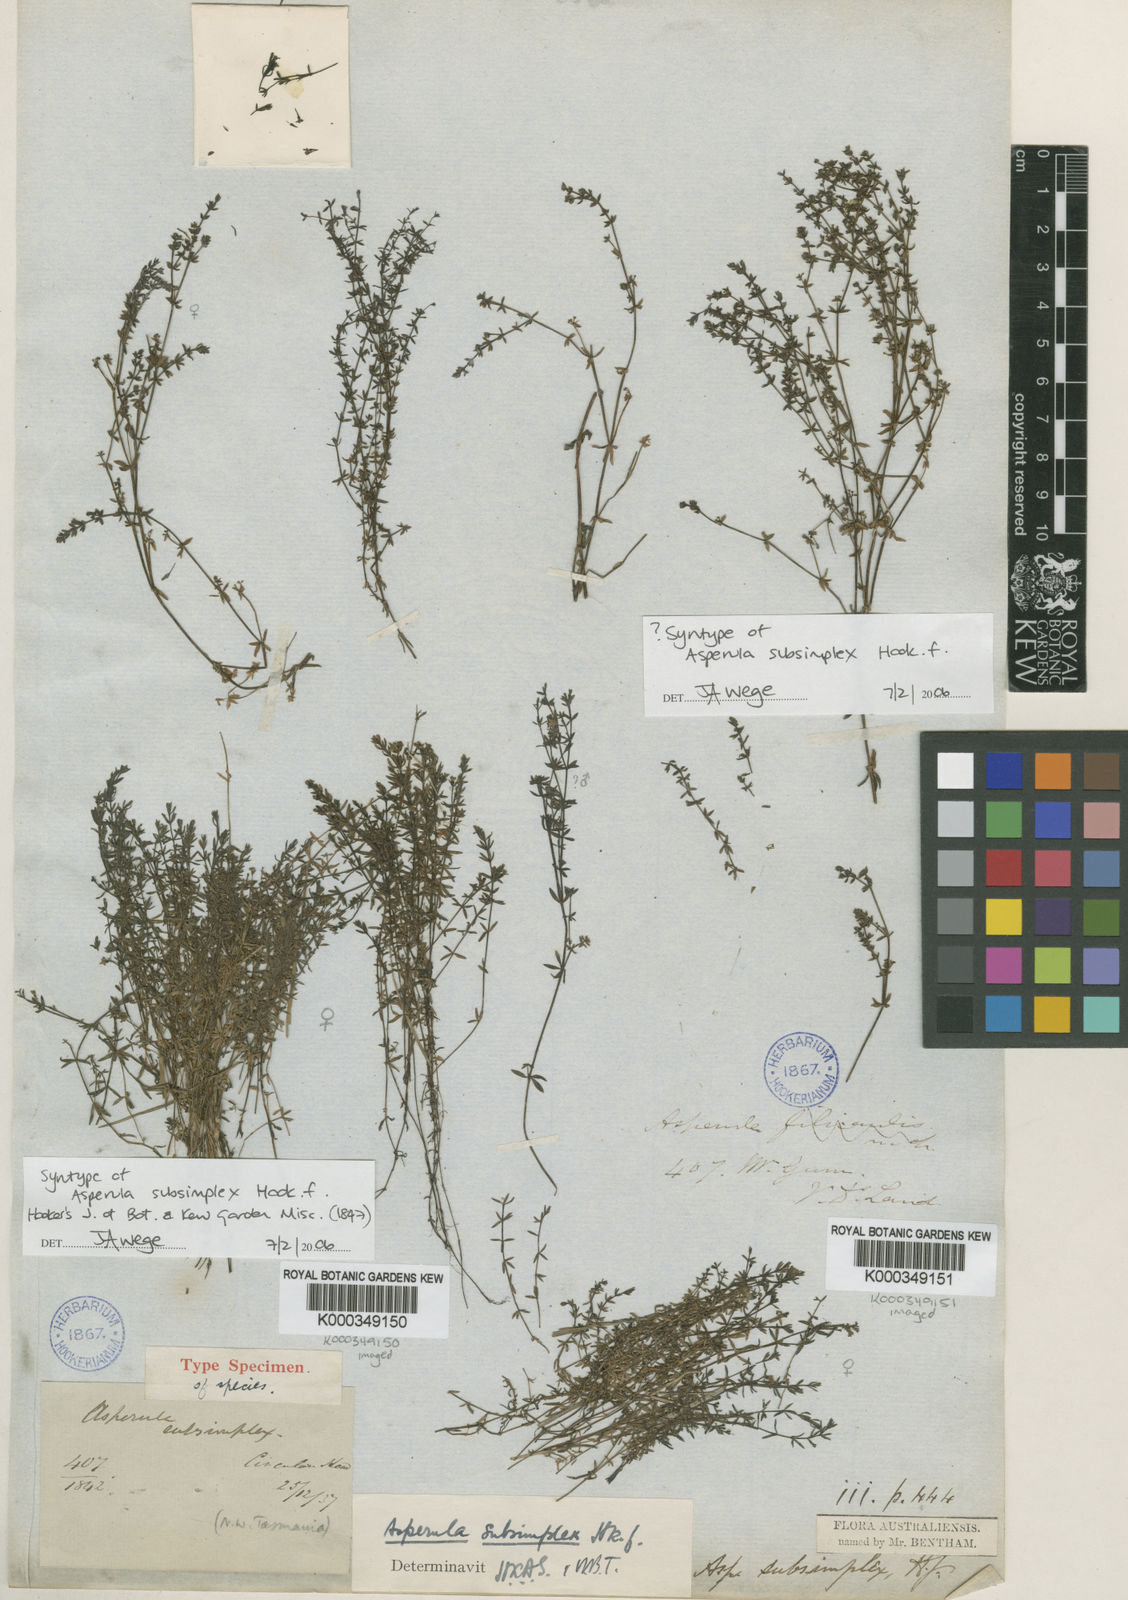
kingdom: Plantae
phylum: Tracheophyta
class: Magnoliopsida
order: Gentianales
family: Rubiaceae
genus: Asperula
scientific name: Asperula subsimplex
